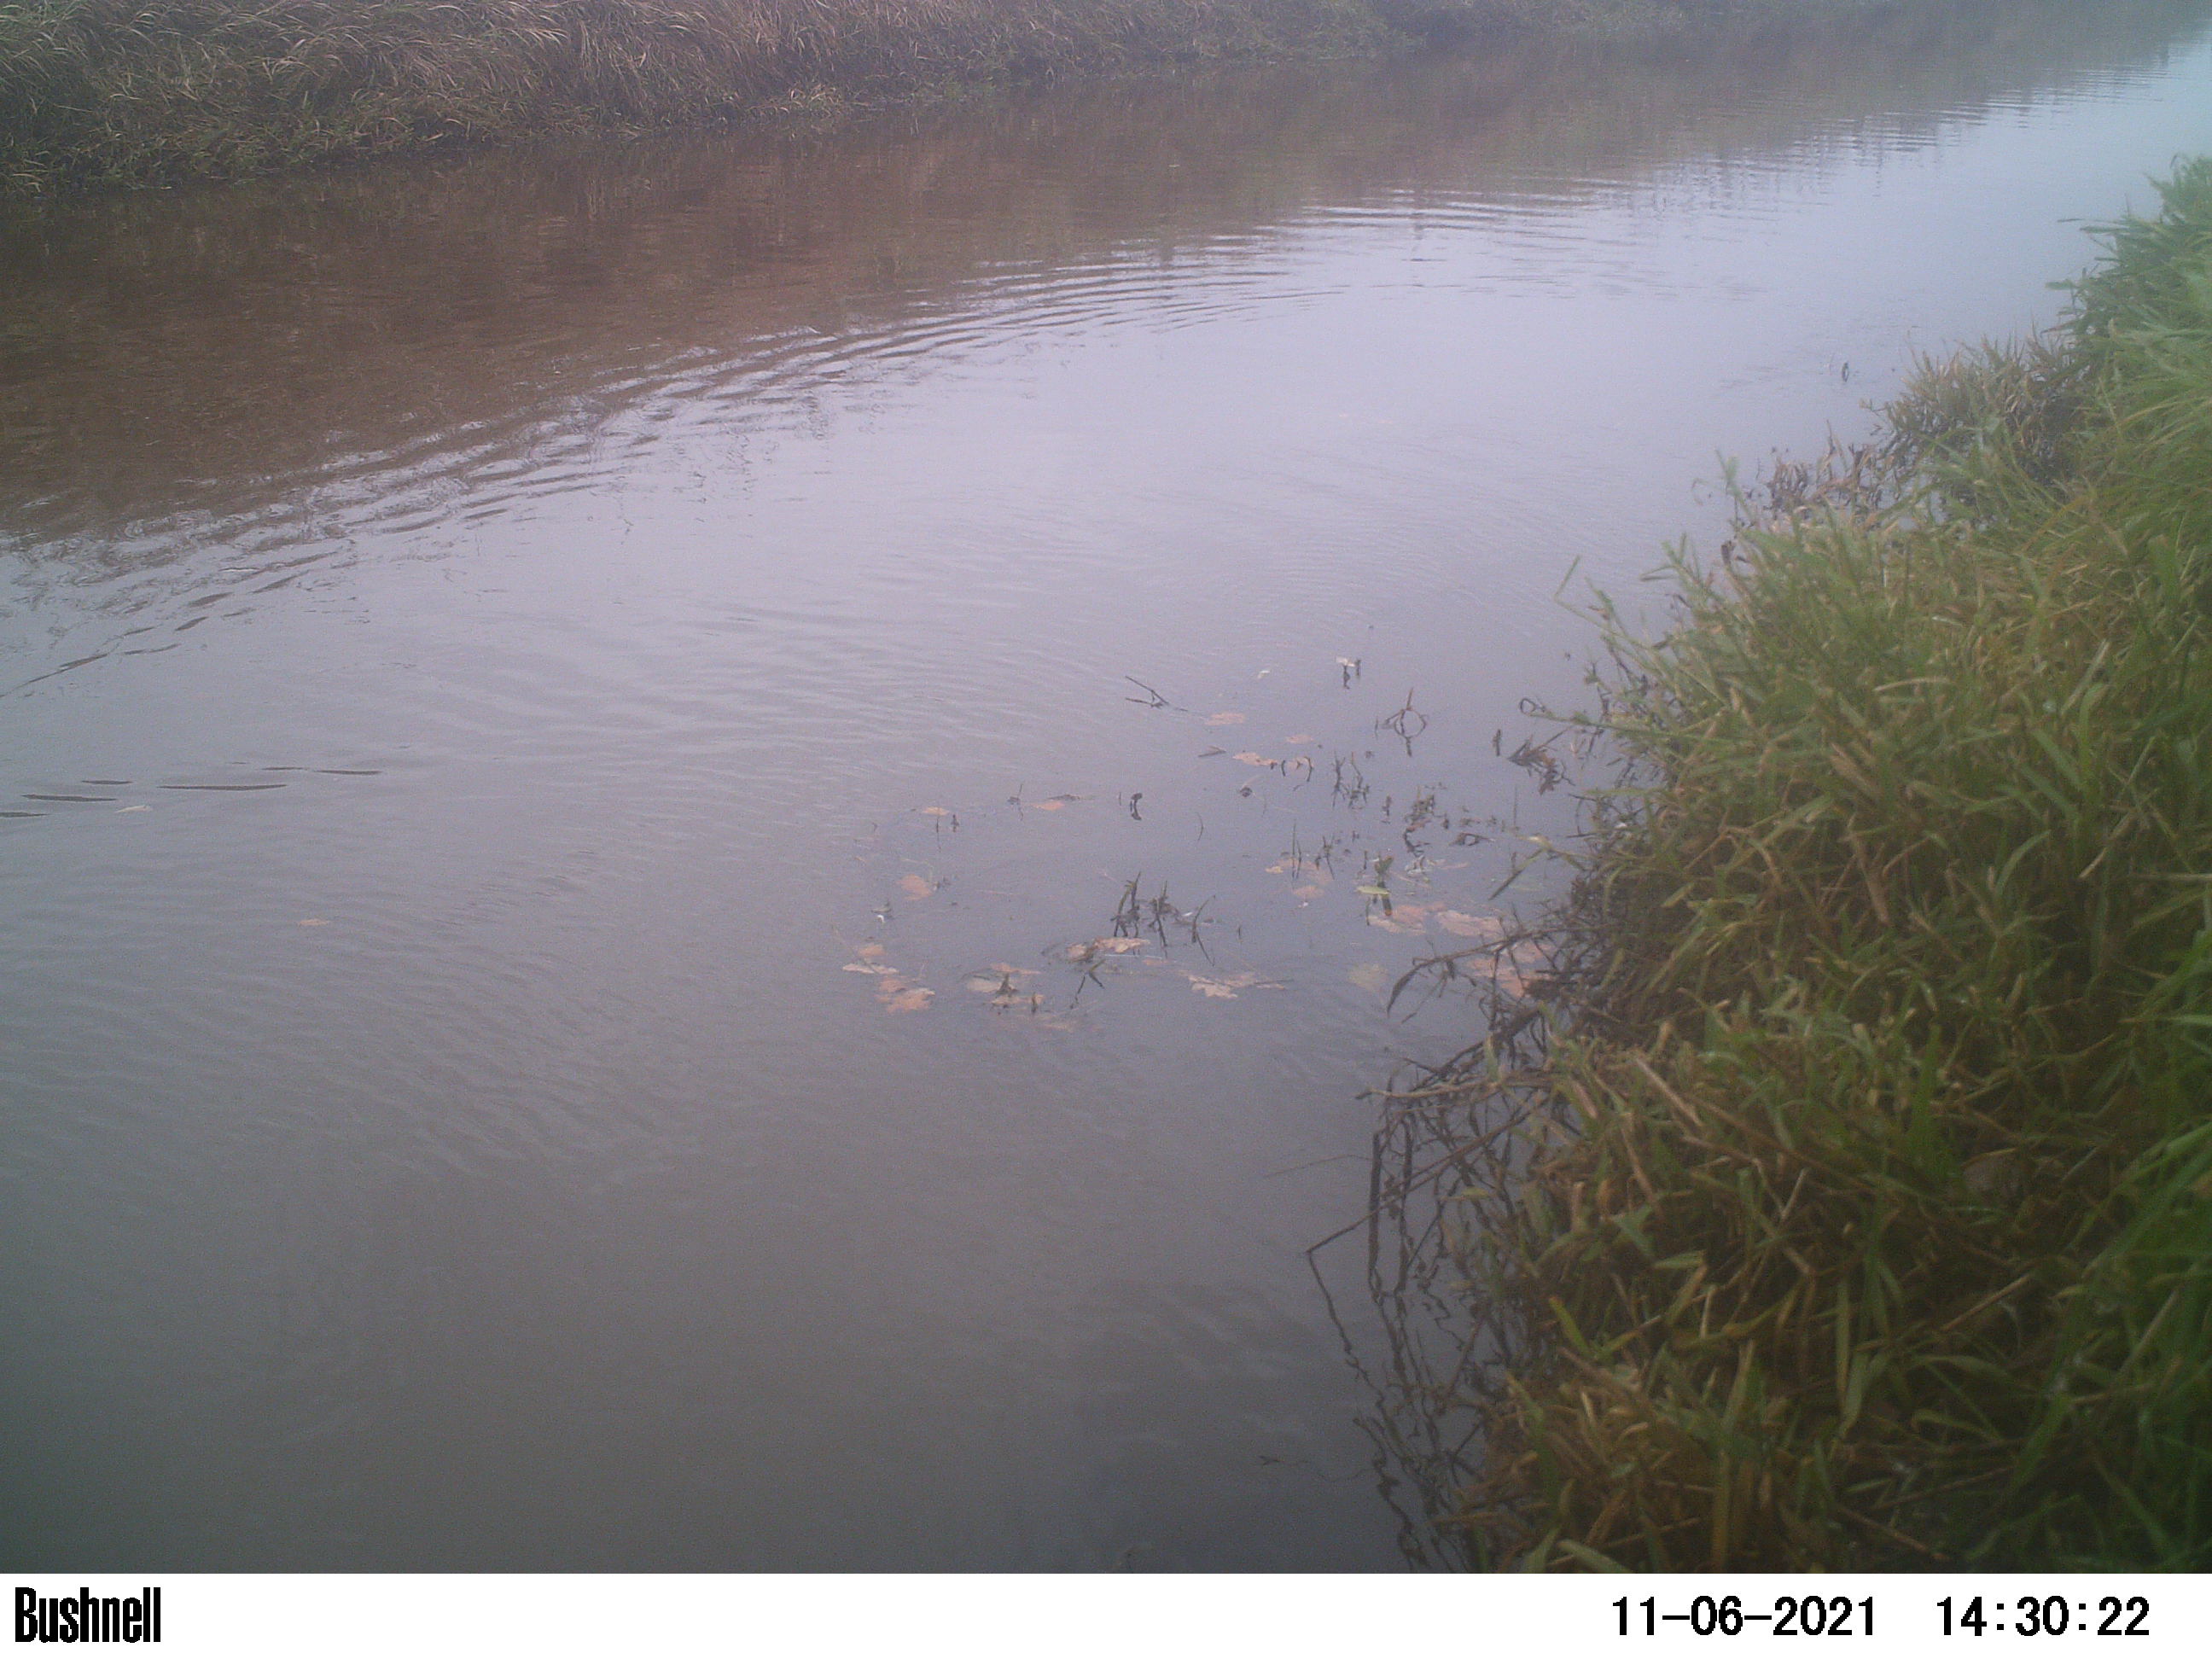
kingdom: Animalia
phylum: Chordata
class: Aves
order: Anseriformes
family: Anatidae
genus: Anas
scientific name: Anas
